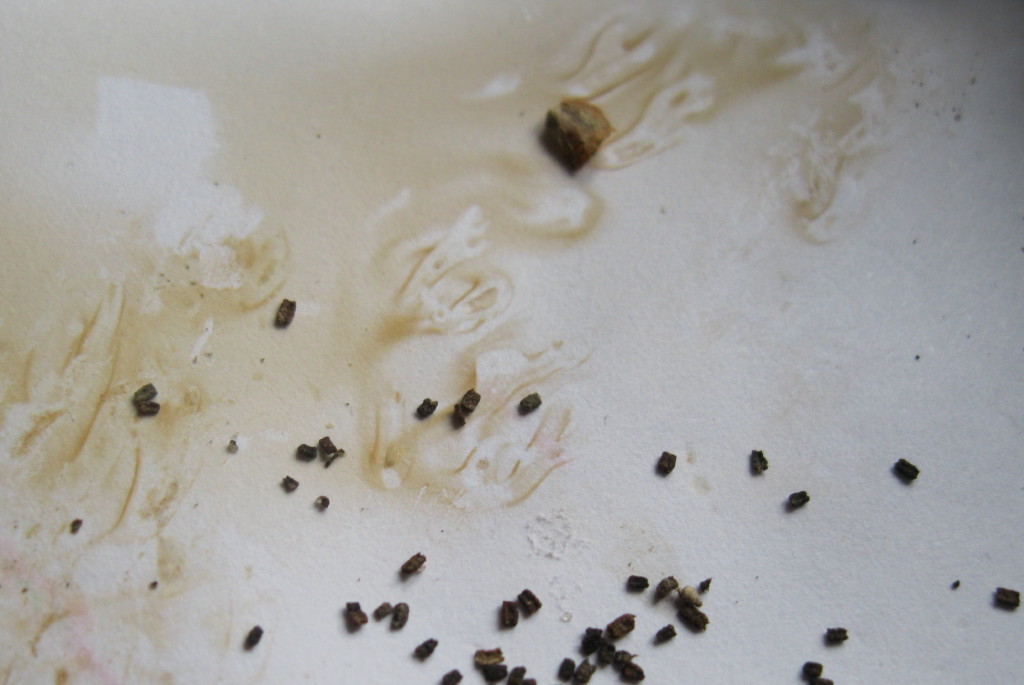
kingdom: Fungi
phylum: Basidiomycota
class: Agaricomycetes
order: Gomphales
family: Gomphaceae
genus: Ramaria
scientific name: Ramaria stricta
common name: rank koralsvamp
